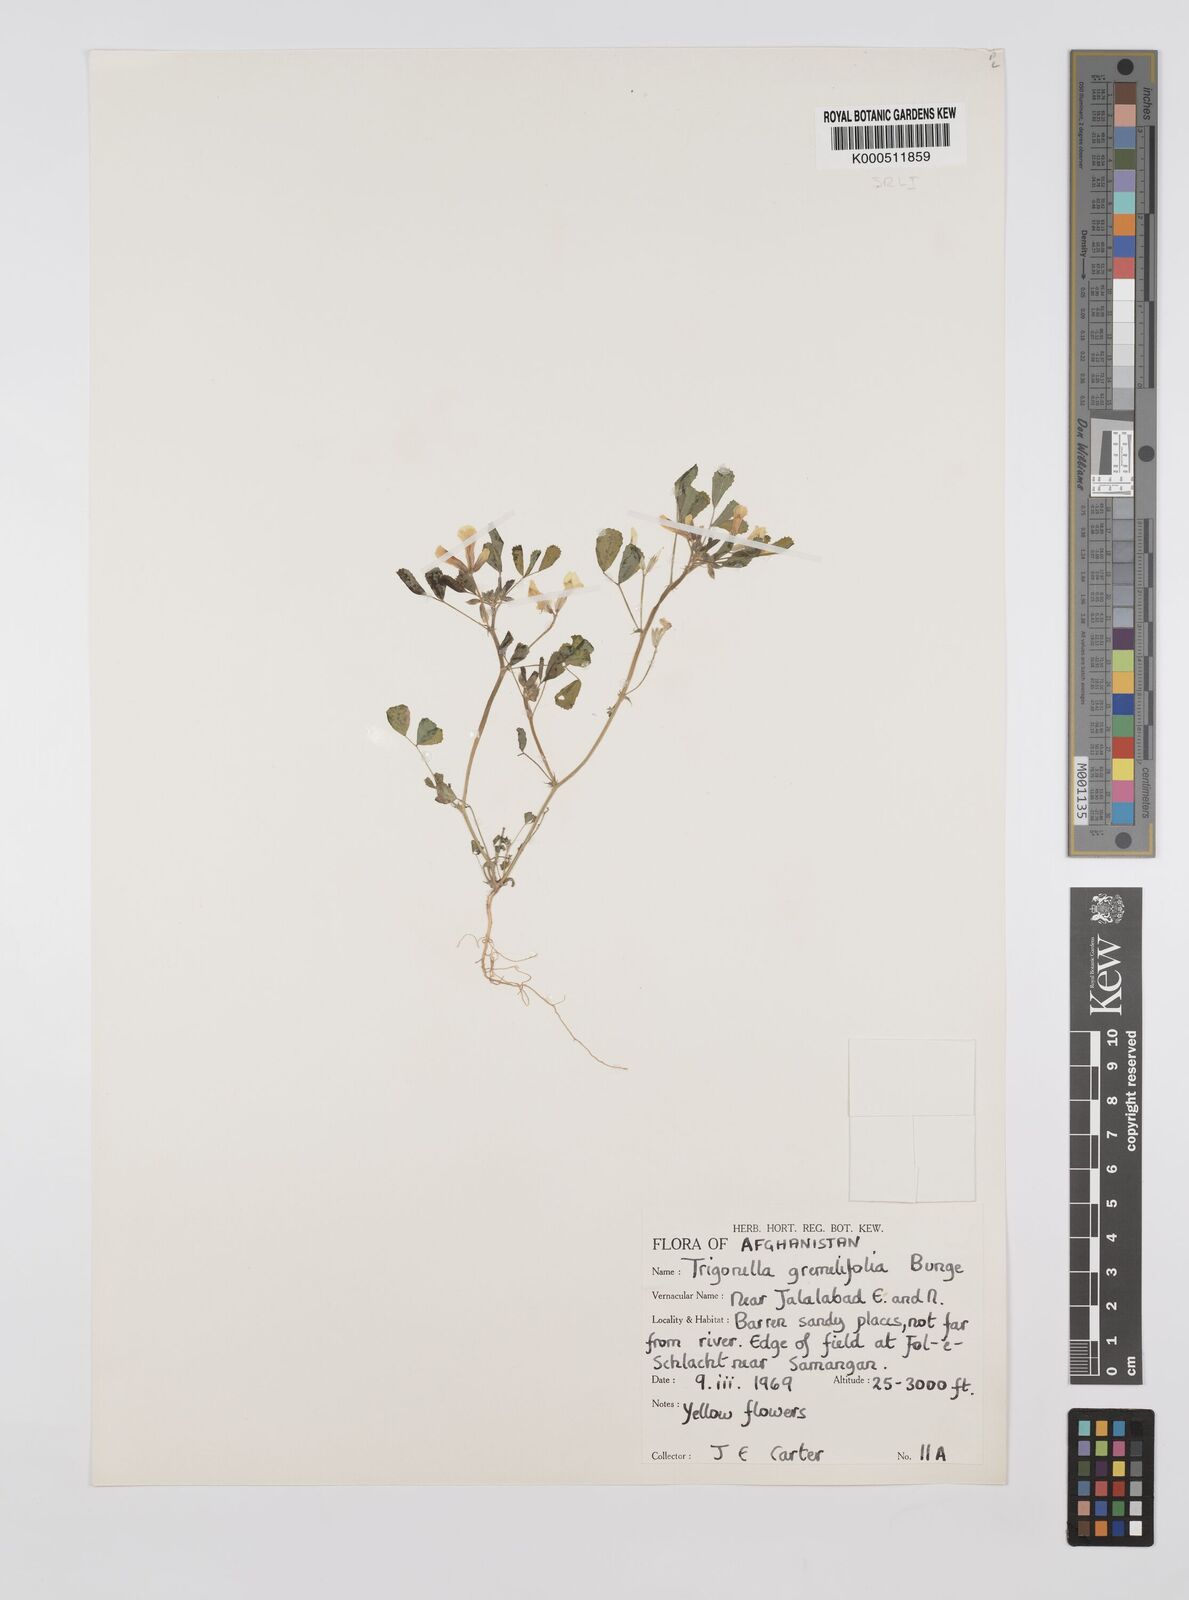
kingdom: Plantae
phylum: Tracheophyta
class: Magnoliopsida
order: Fabales
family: Fabaceae
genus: Trigonella
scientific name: Trigonella grandiflora
